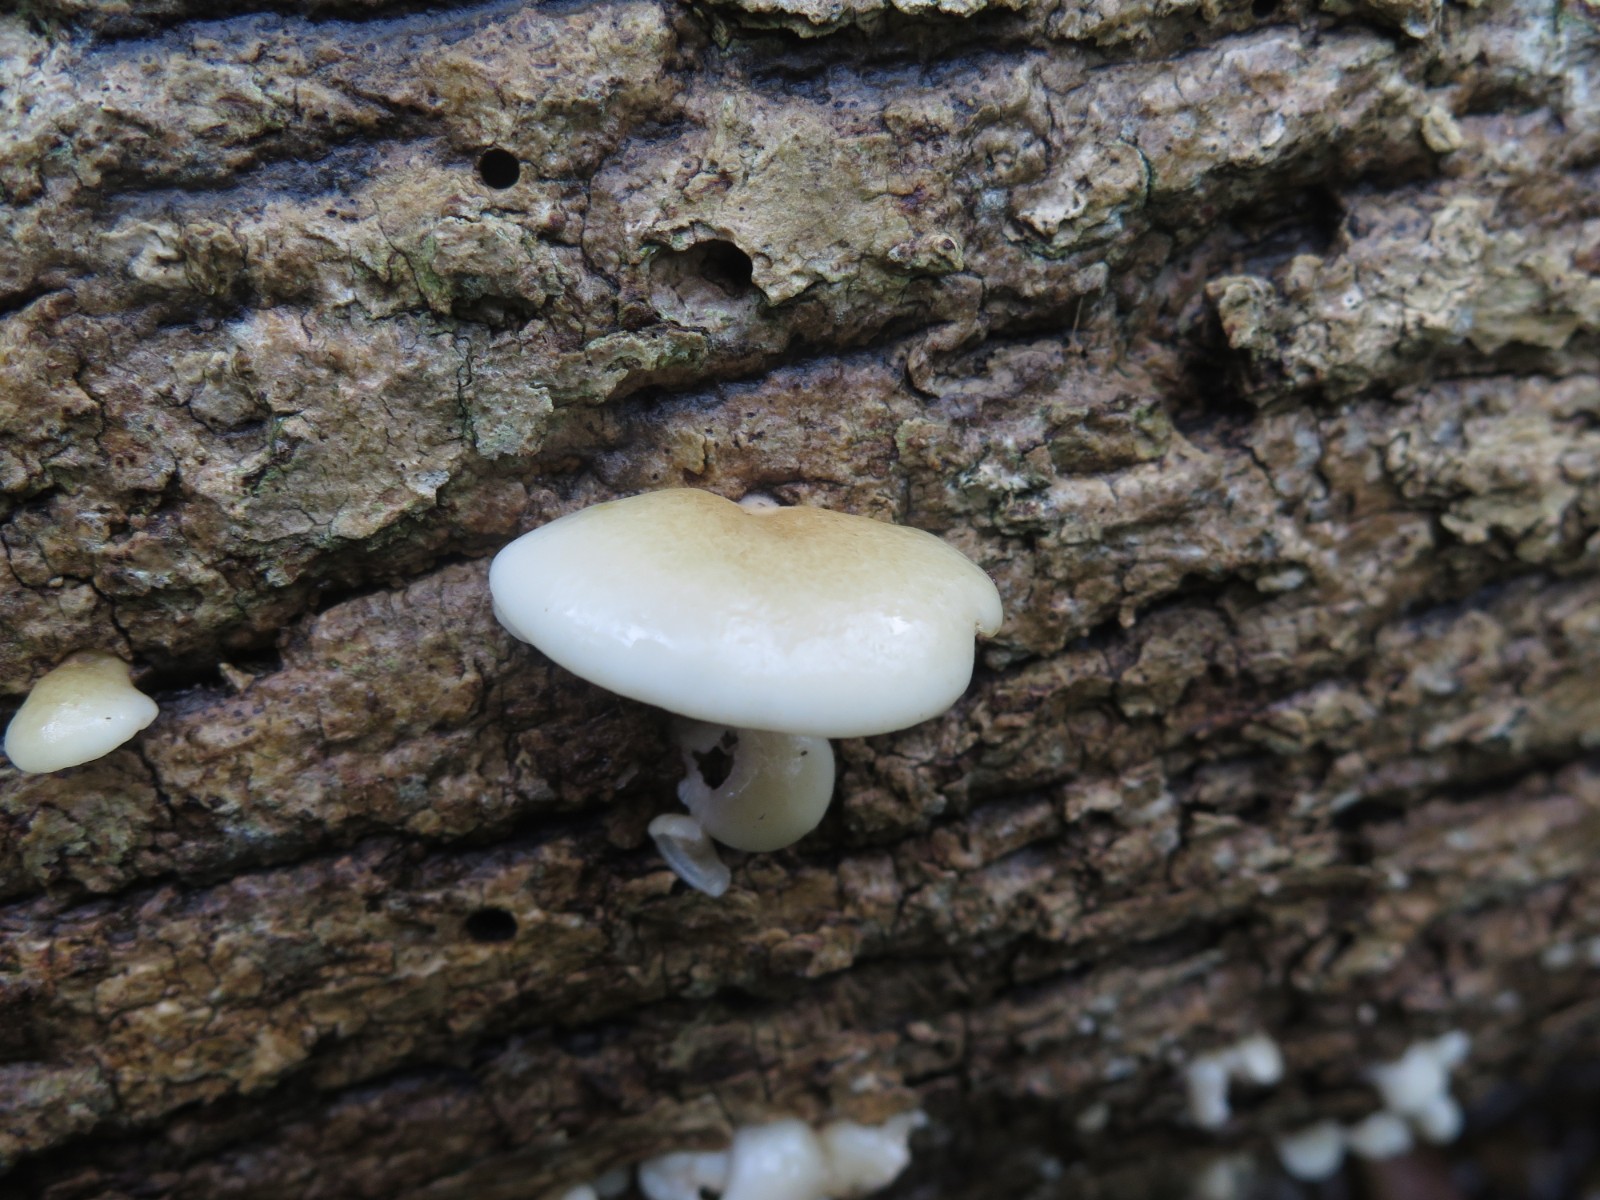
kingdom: Fungi
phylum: Basidiomycota
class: Agaricomycetes
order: Agaricales
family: Crepidotaceae
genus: Crepidotus
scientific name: Crepidotus mollis
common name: blød muslingesvamp
